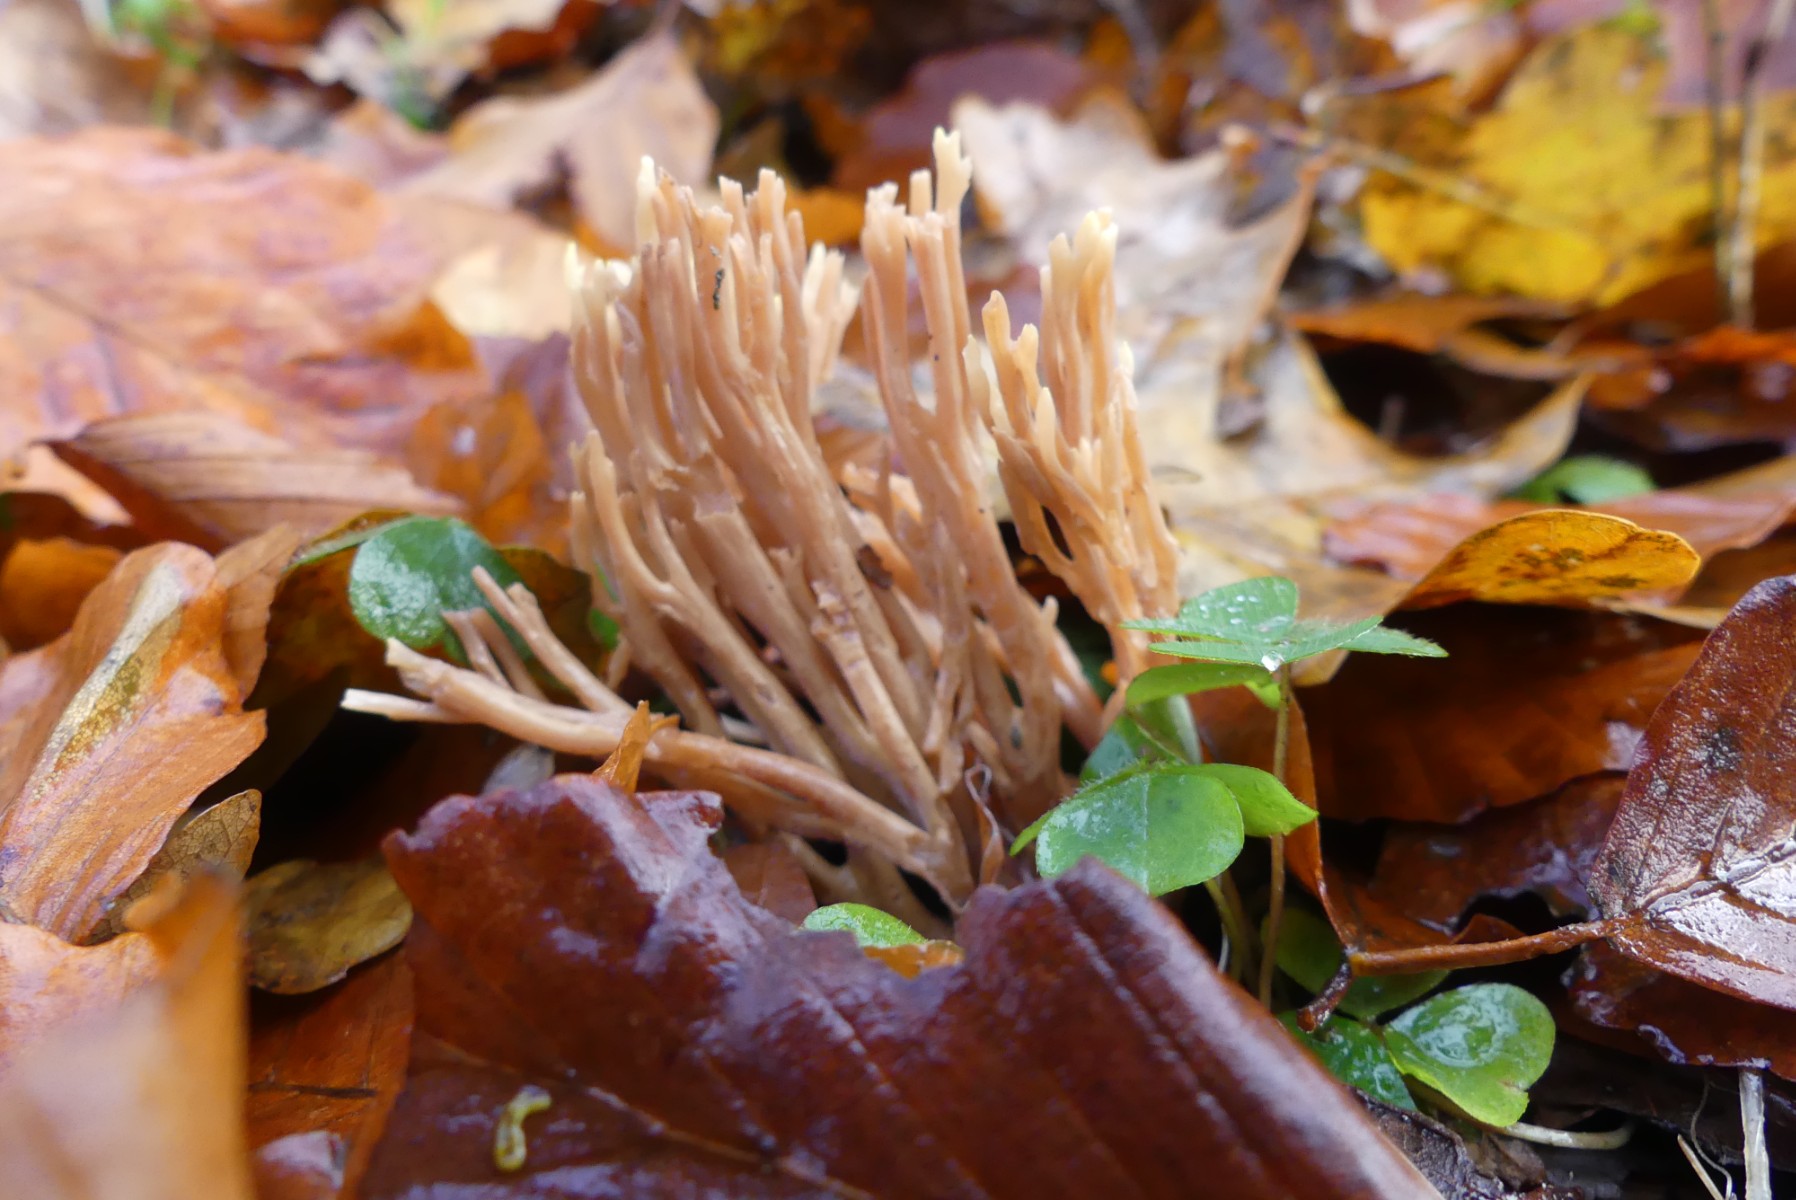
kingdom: Fungi
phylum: Basidiomycota
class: Agaricomycetes
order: Gomphales
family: Gomphaceae
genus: Ramaria
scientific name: Ramaria stricta
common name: rank koralsvamp
